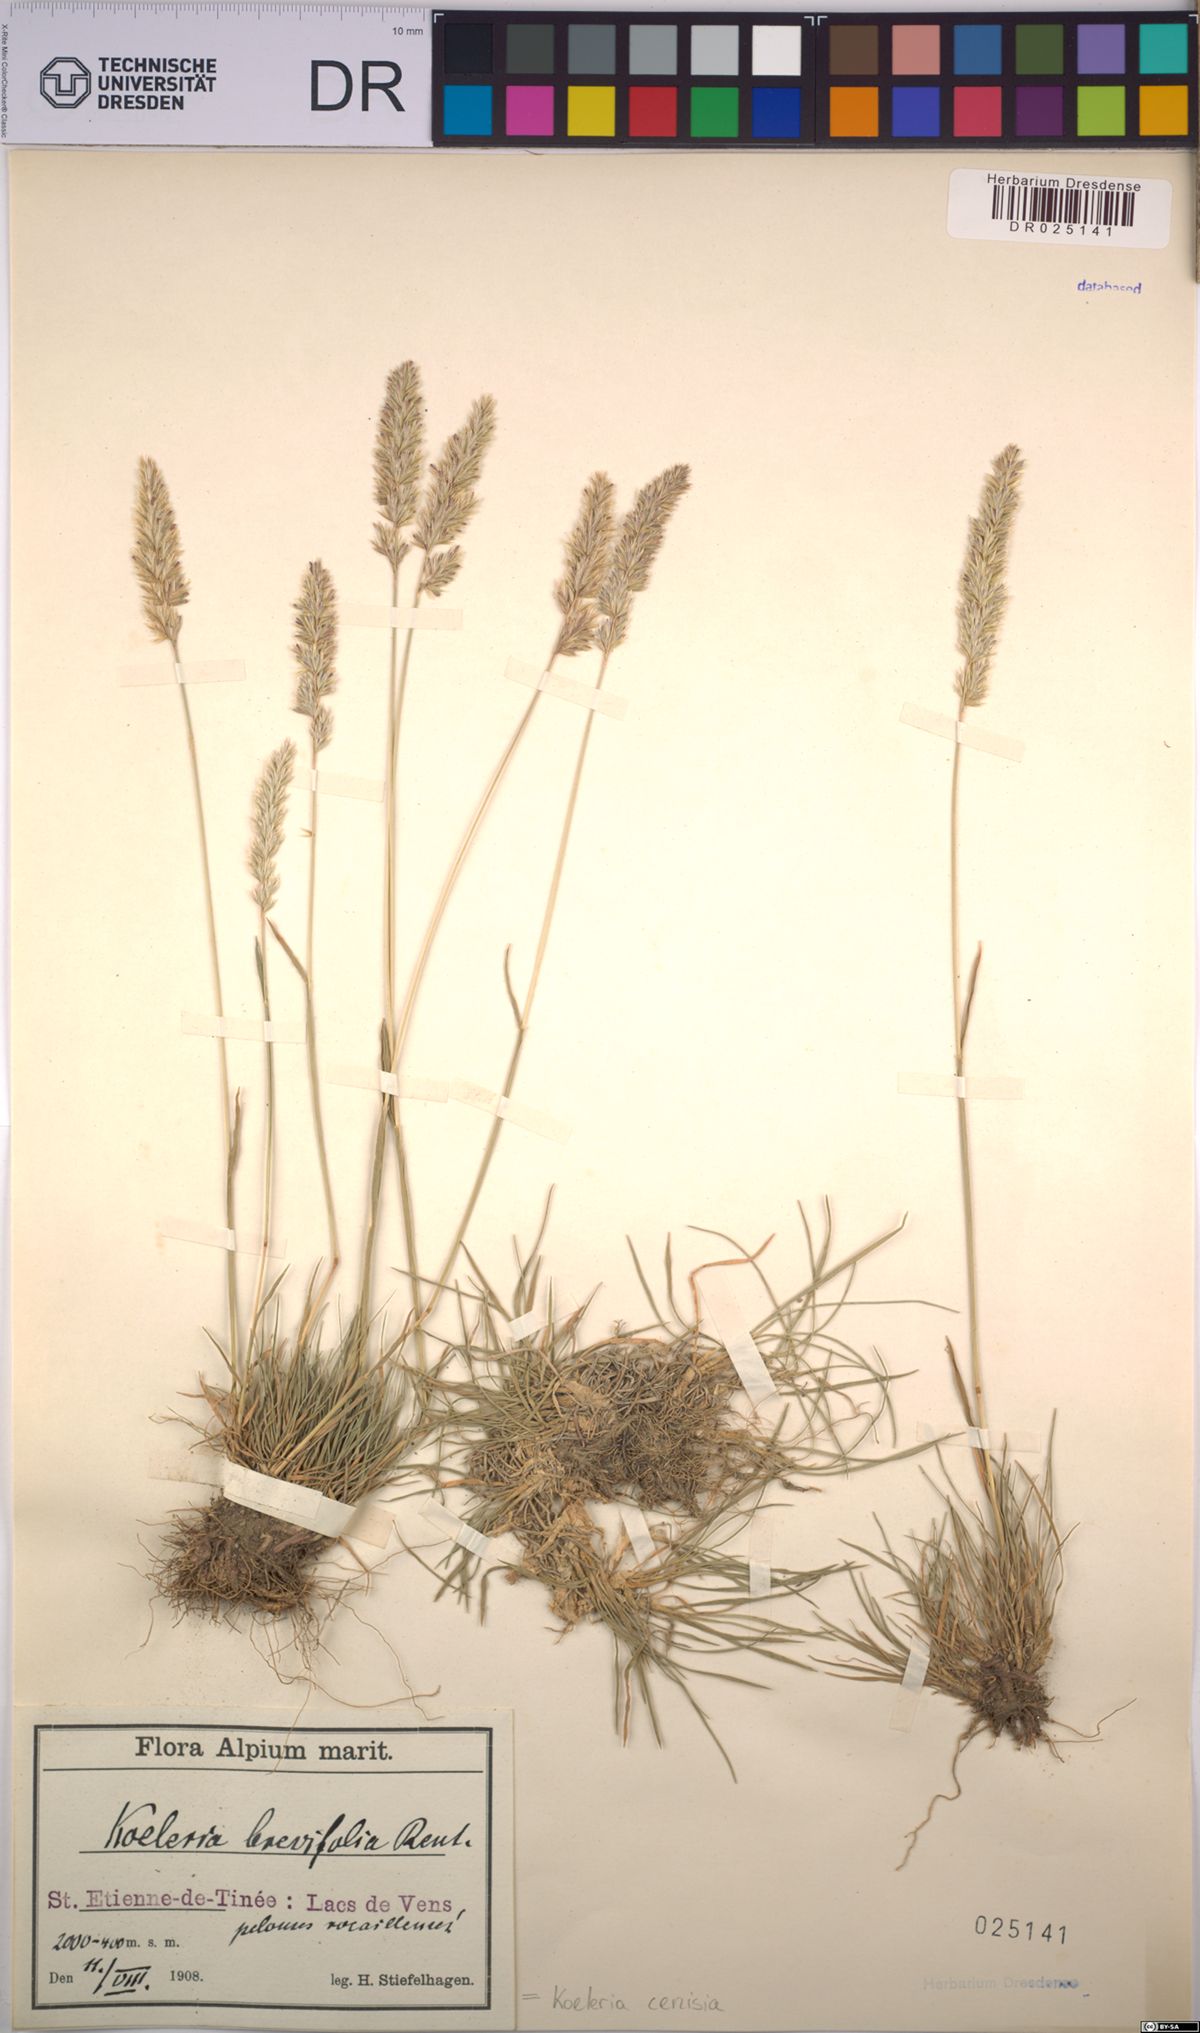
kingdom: Plantae
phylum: Tracheophyta
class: Liliopsida
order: Poales
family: Poaceae
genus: Koeleria
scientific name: Koeleria cenisia
